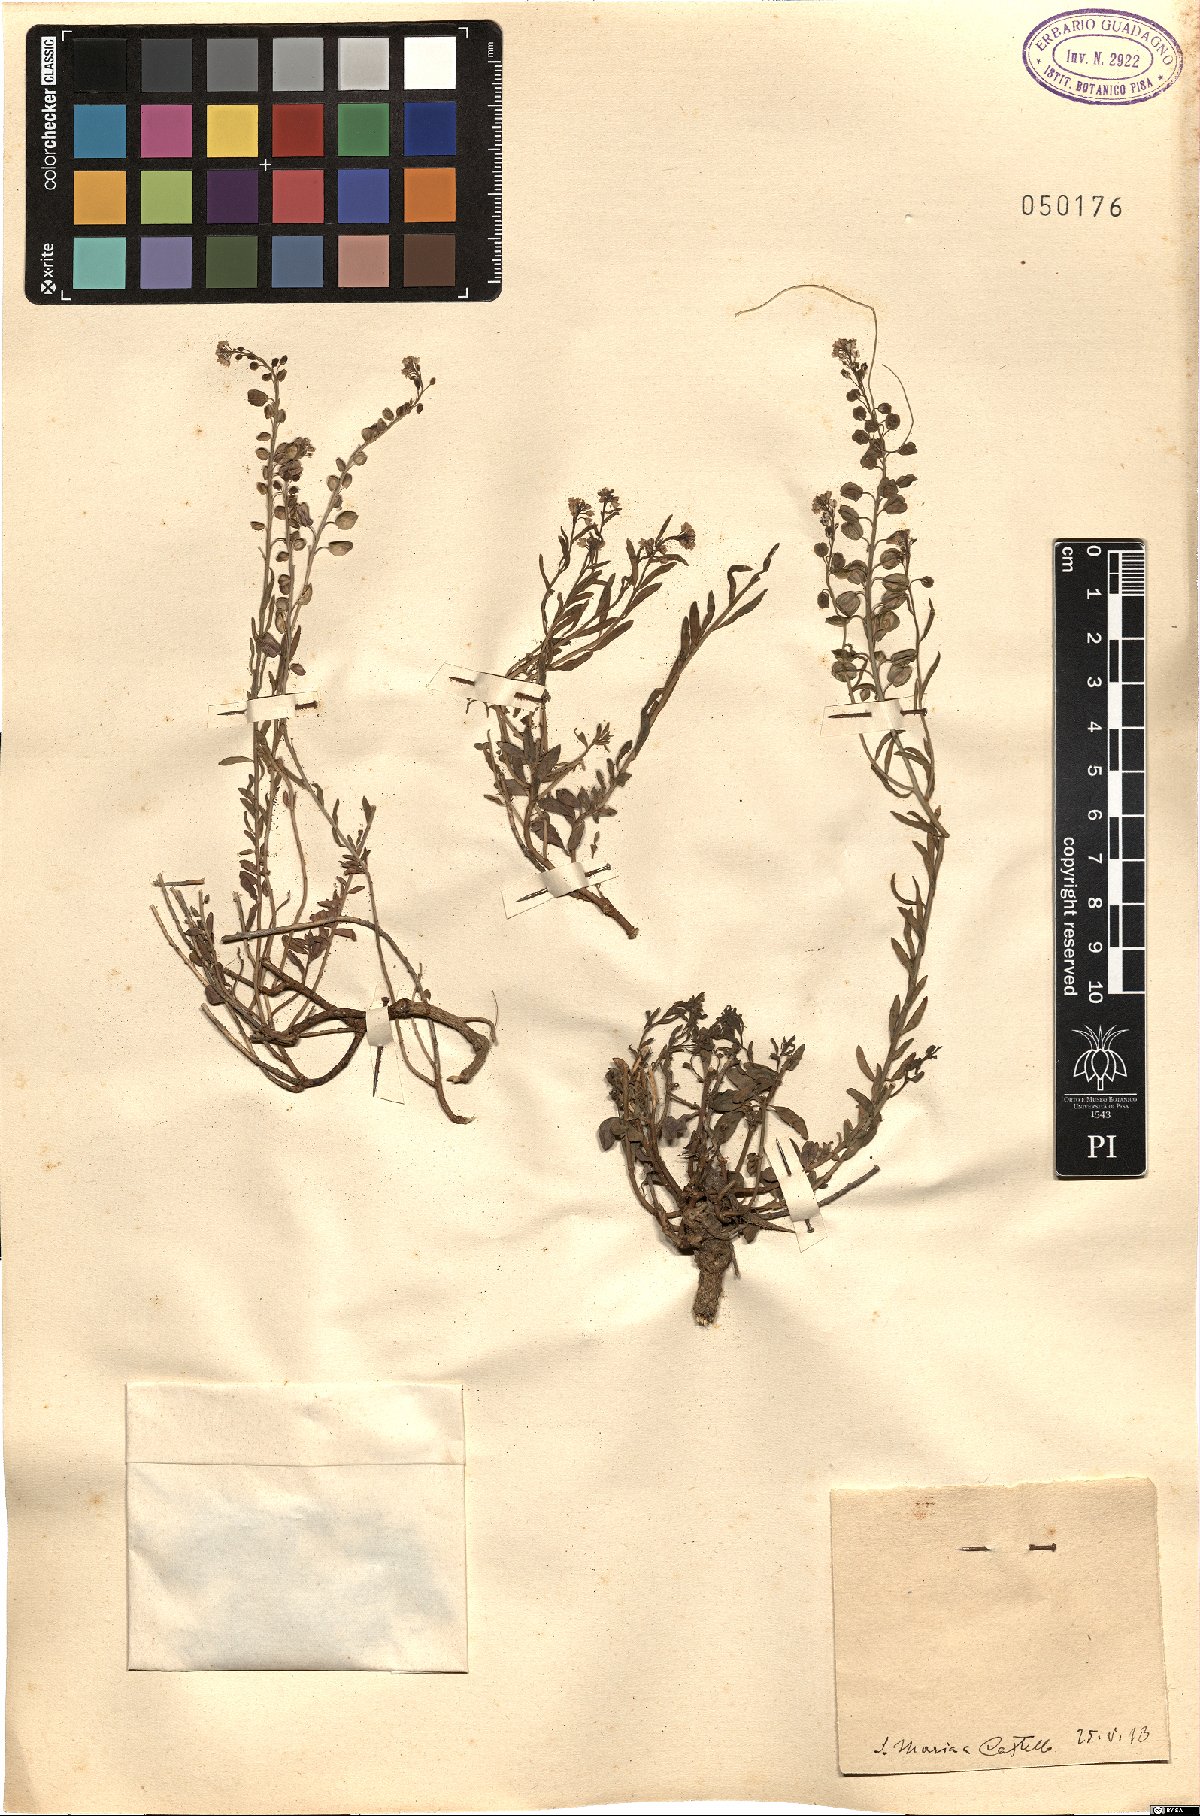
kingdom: Plantae
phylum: Tracheophyta
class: Magnoliopsida
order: Brassicales
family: Brassicaceae
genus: Aethionema
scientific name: Aethionema
